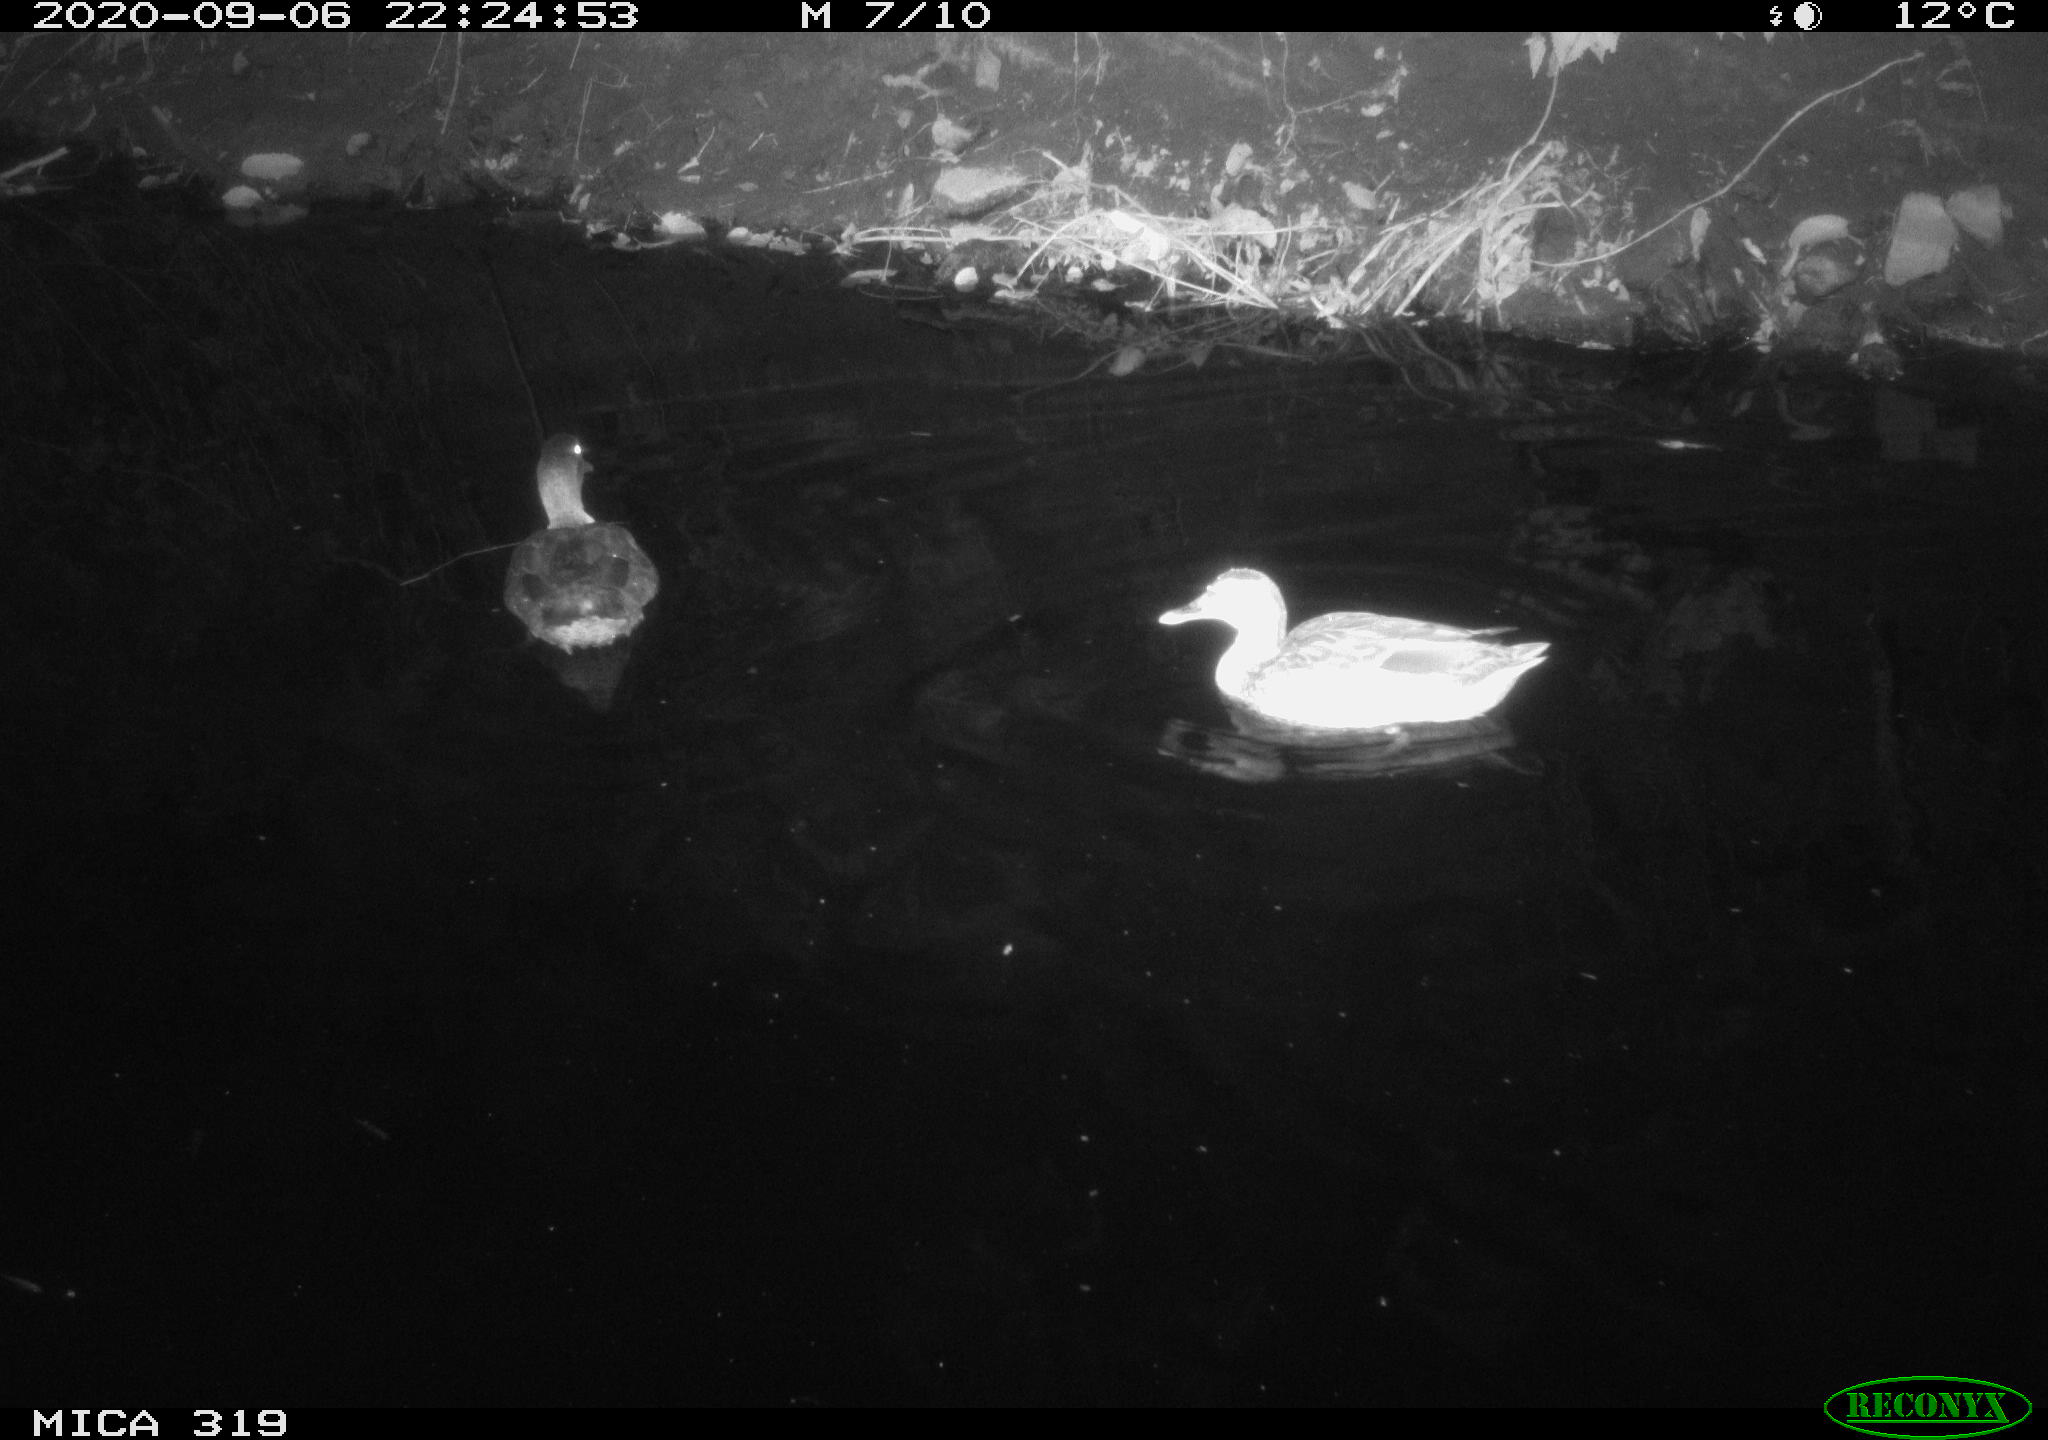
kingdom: Animalia
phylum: Chordata
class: Aves
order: Anseriformes
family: Anatidae
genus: Anas
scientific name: Anas platyrhynchos
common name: Mallard
